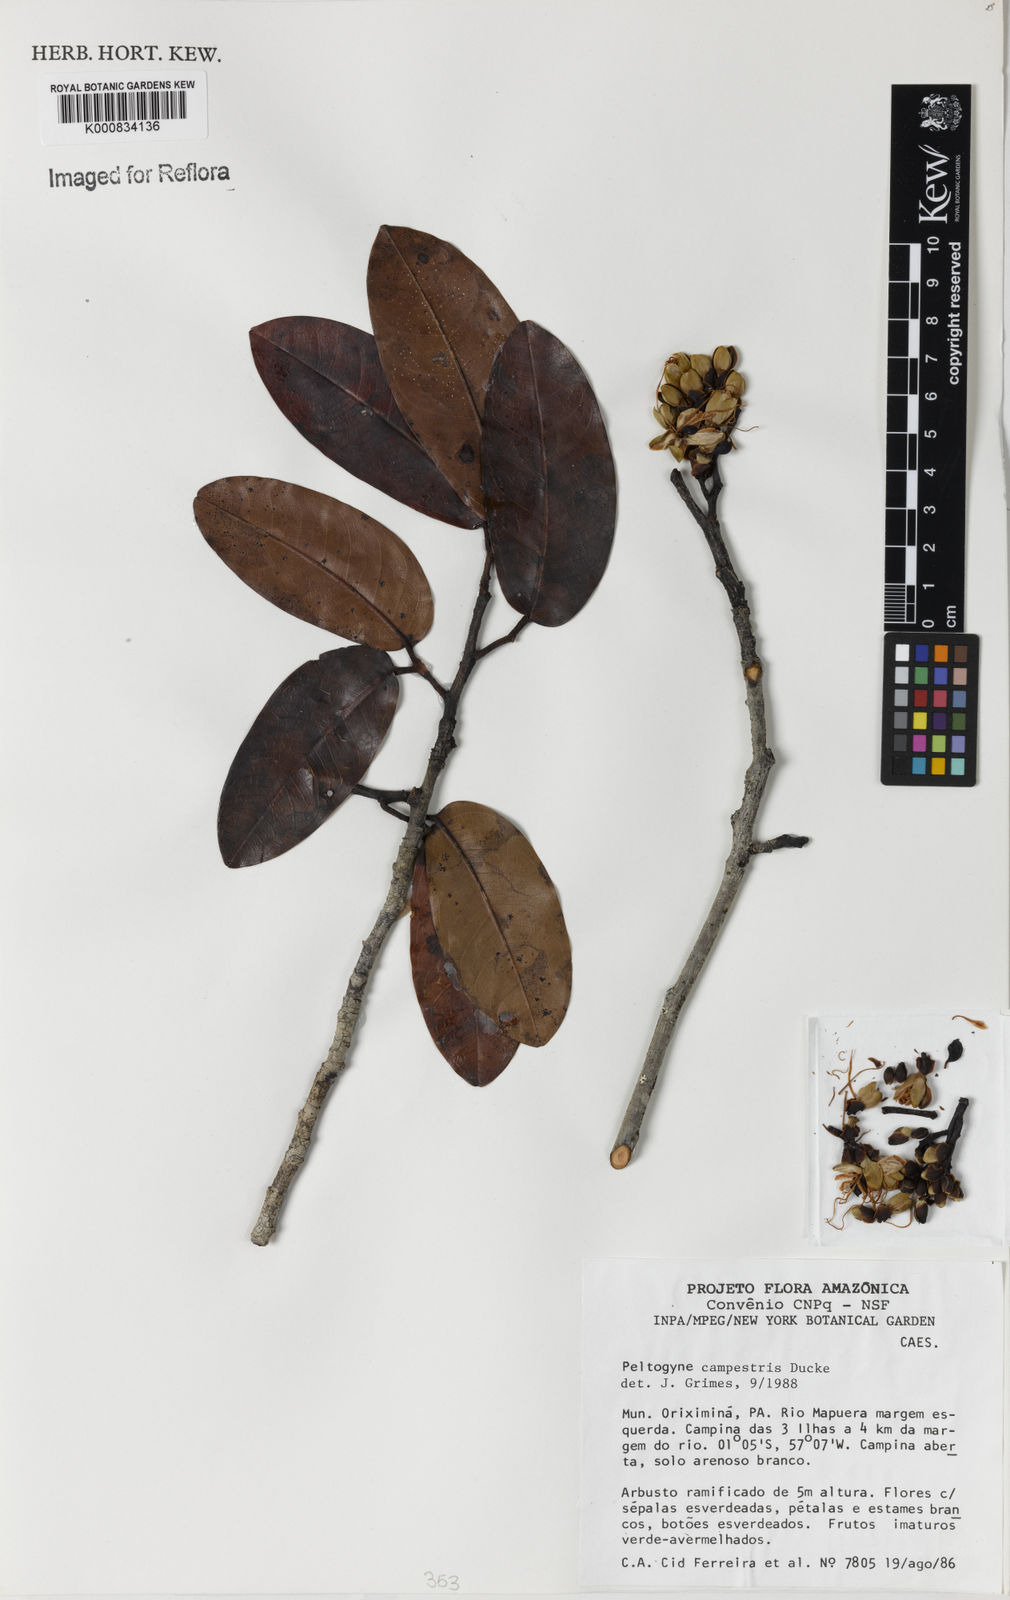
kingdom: Plantae
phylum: Tracheophyta
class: Magnoliopsida
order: Fabales
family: Fabaceae
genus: Peltogyne
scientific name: Peltogyne campestris
